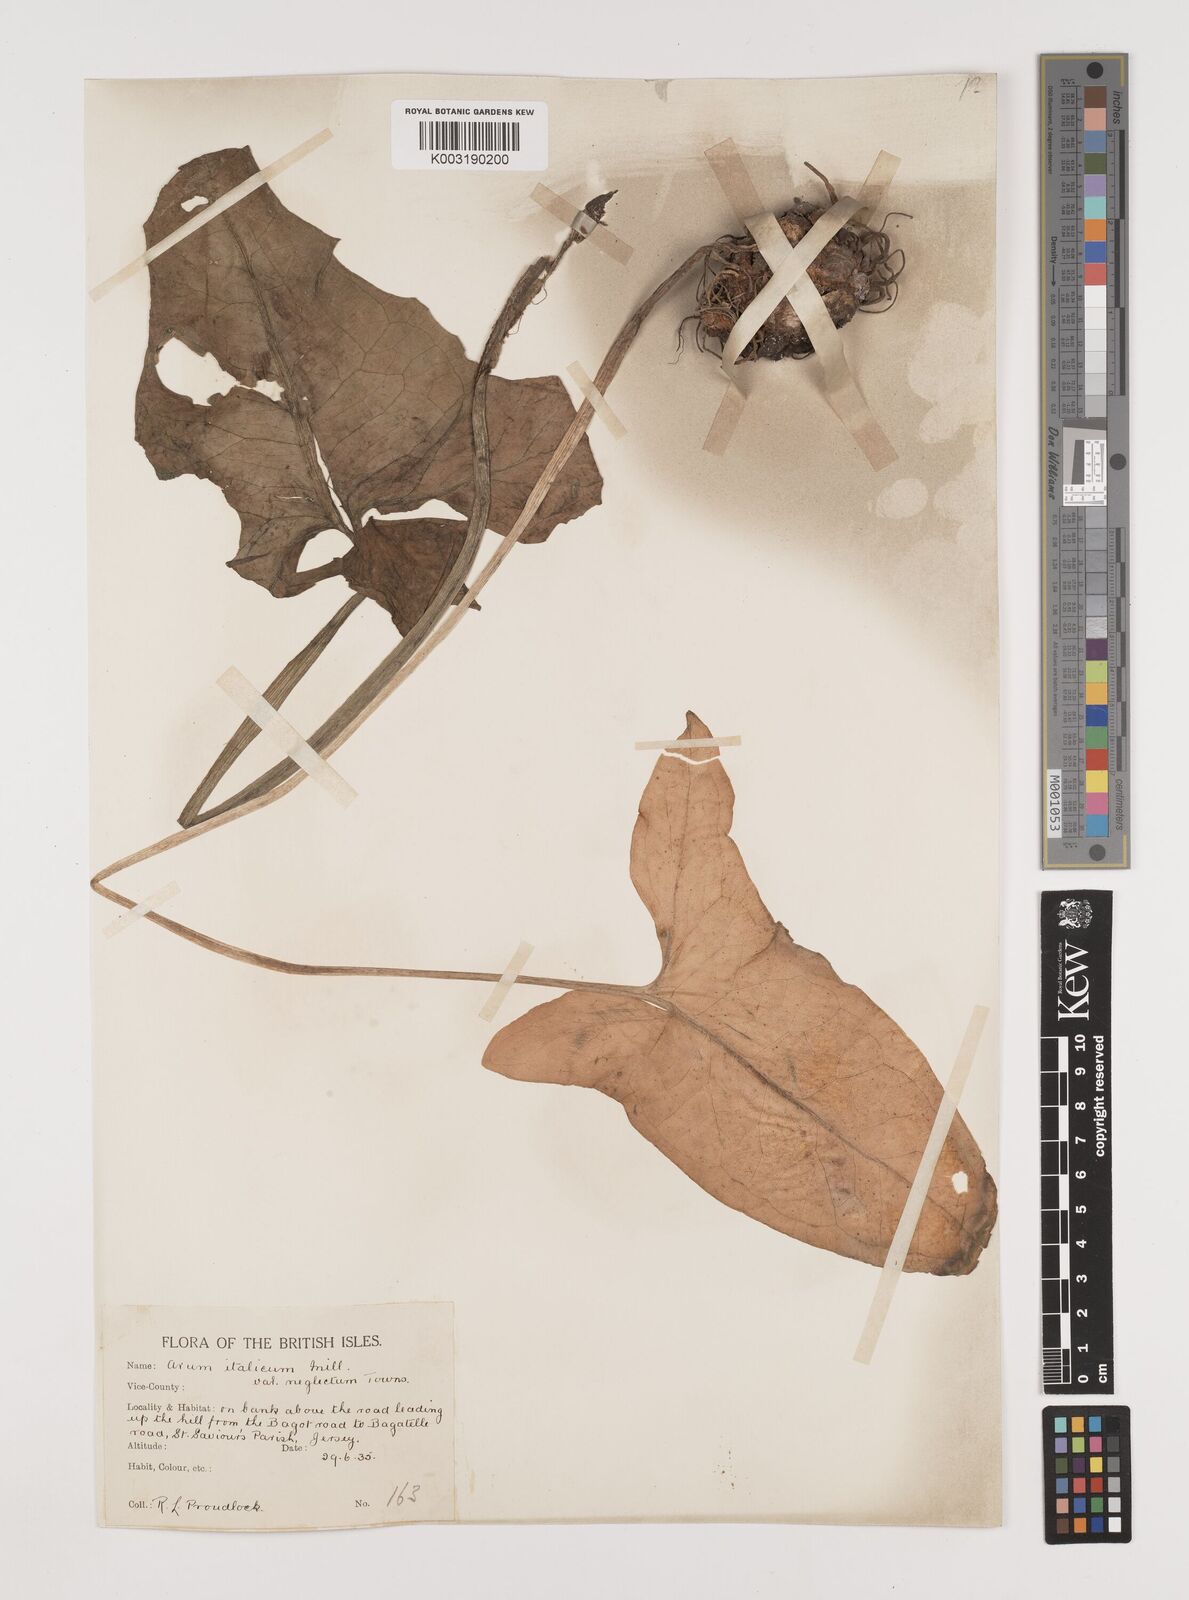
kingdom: Plantae
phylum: Tracheophyta
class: Liliopsida
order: Alismatales
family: Araceae
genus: Arum
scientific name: Arum italicum
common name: Italian lords-and-ladies
